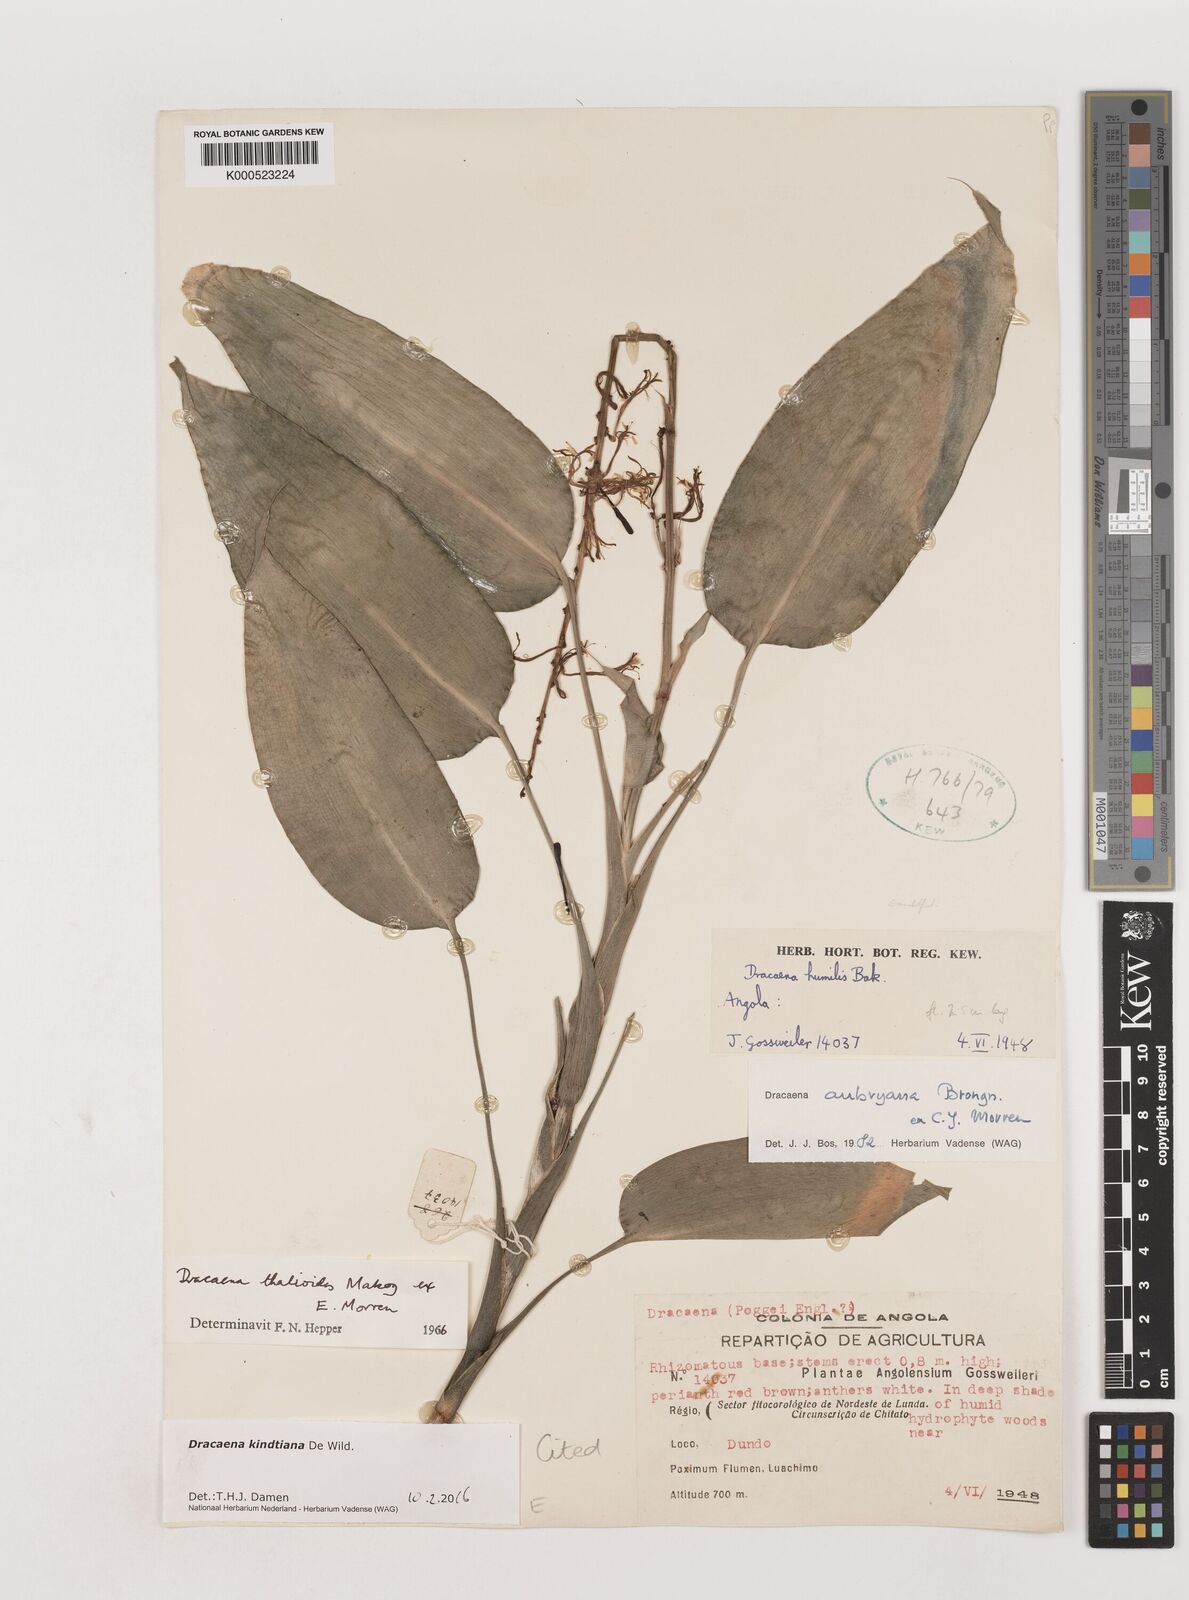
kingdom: Plantae
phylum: Tracheophyta
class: Liliopsida
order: Asparagales
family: Asparagaceae
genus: Dracaena
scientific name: Dracaena kindtiana
